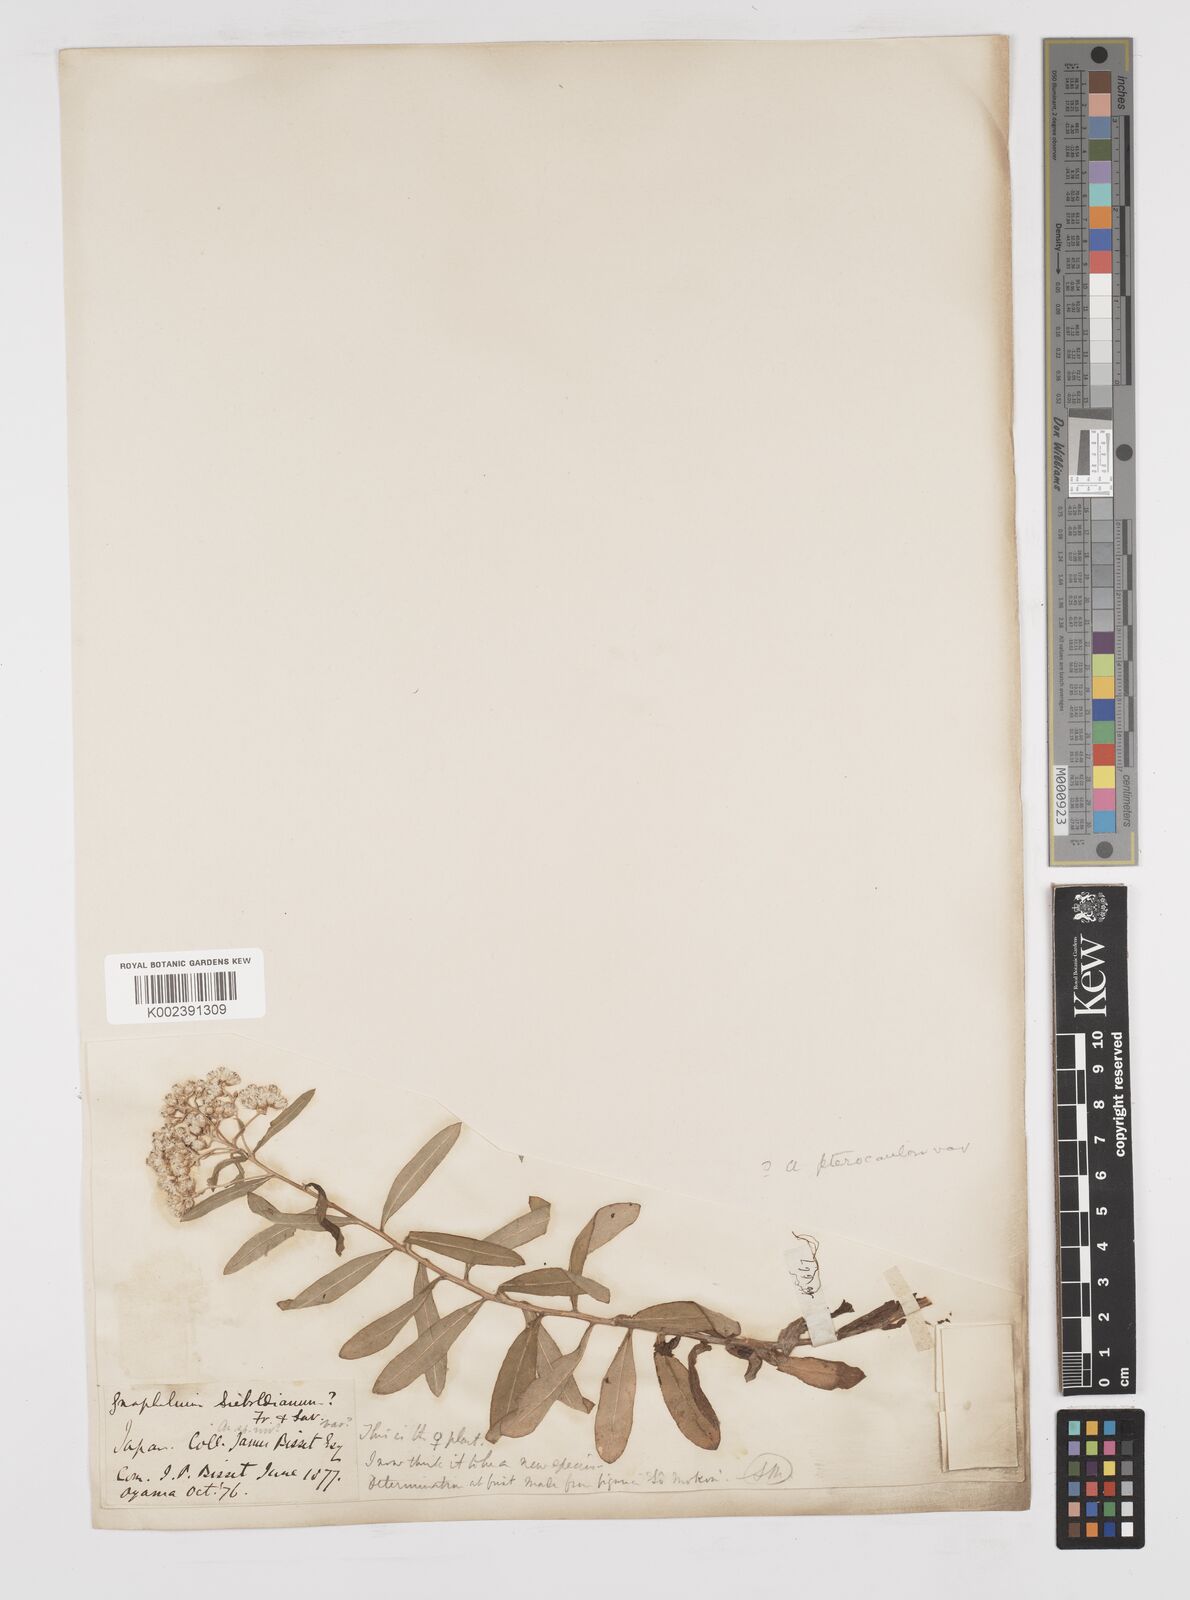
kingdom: Plantae
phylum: Tracheophyta
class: Magnoliopsida
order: Asterales
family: Asteraceae
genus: Anaphalis
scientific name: Anaphalis sinica
